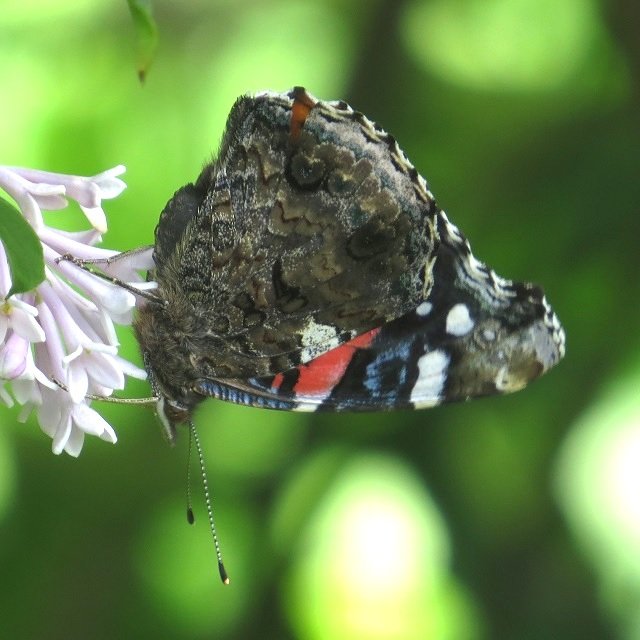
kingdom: Animalia
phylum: Arthropoda
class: Insecta
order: Lepidoptera
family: Nymphalidae
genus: Vanessa
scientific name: Vanessa atalanta
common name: Red Admiral
